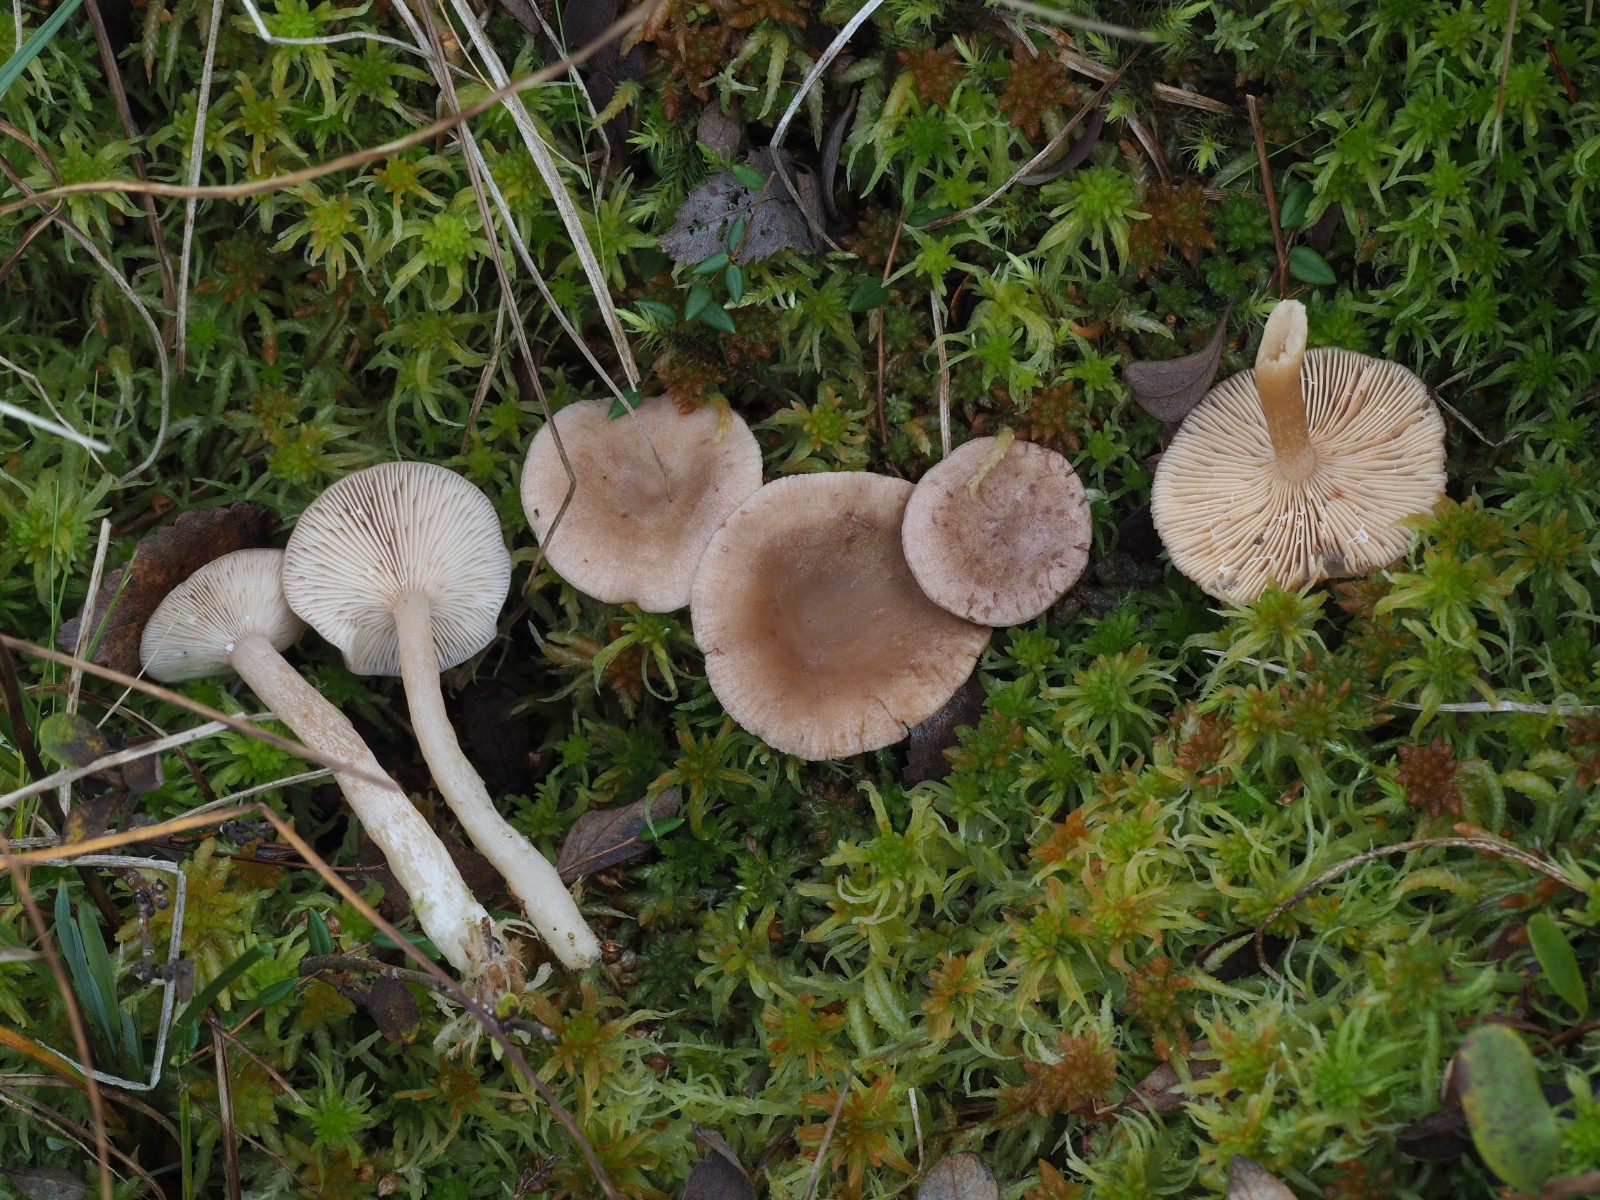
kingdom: Fungi
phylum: Basidiomycota
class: Agaricomycetes
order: Russulales
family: Russulaceae
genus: Lactarius
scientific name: Lactarius glyciosmus
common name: kokos-mælkehat
